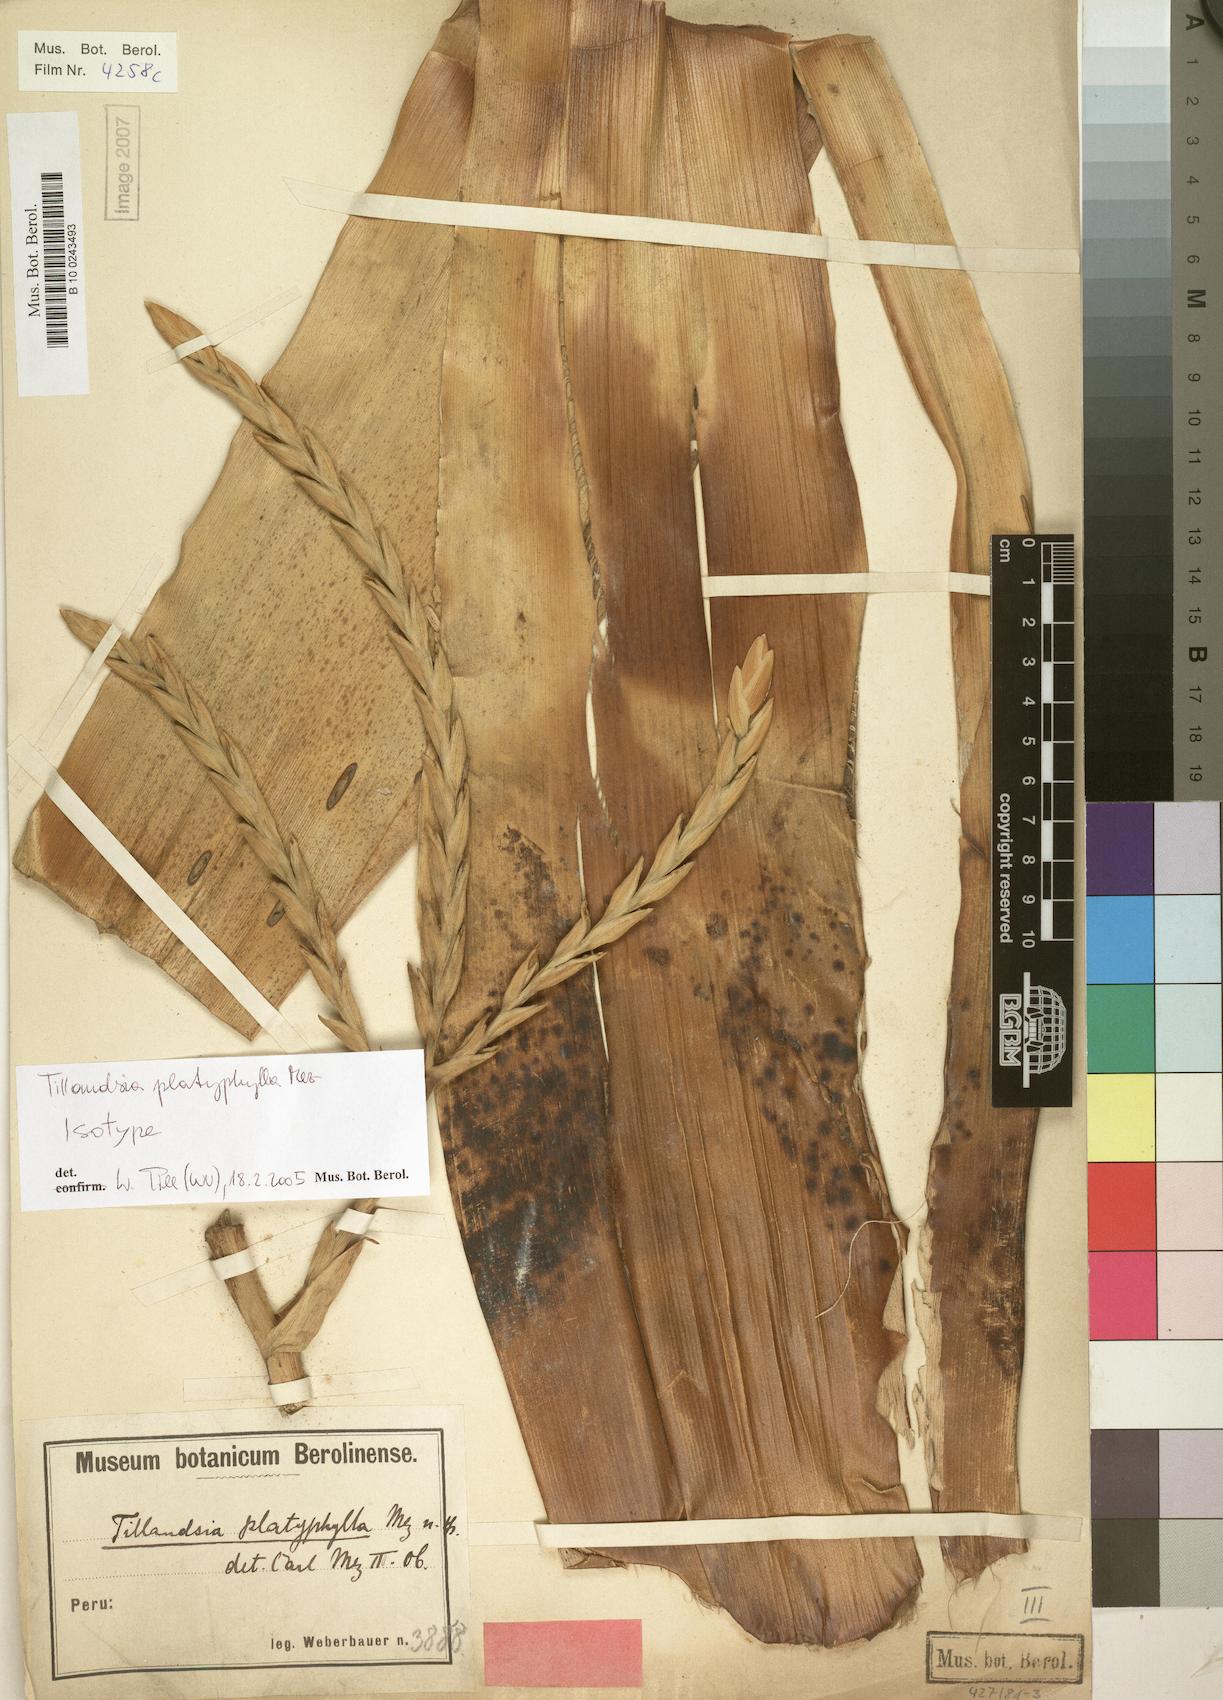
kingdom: Plantae
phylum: Tracheophyta
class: Liliopsida
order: Poales
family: Bromeliaceae
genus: Tillandsia
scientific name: Tillandsia platyphylla
